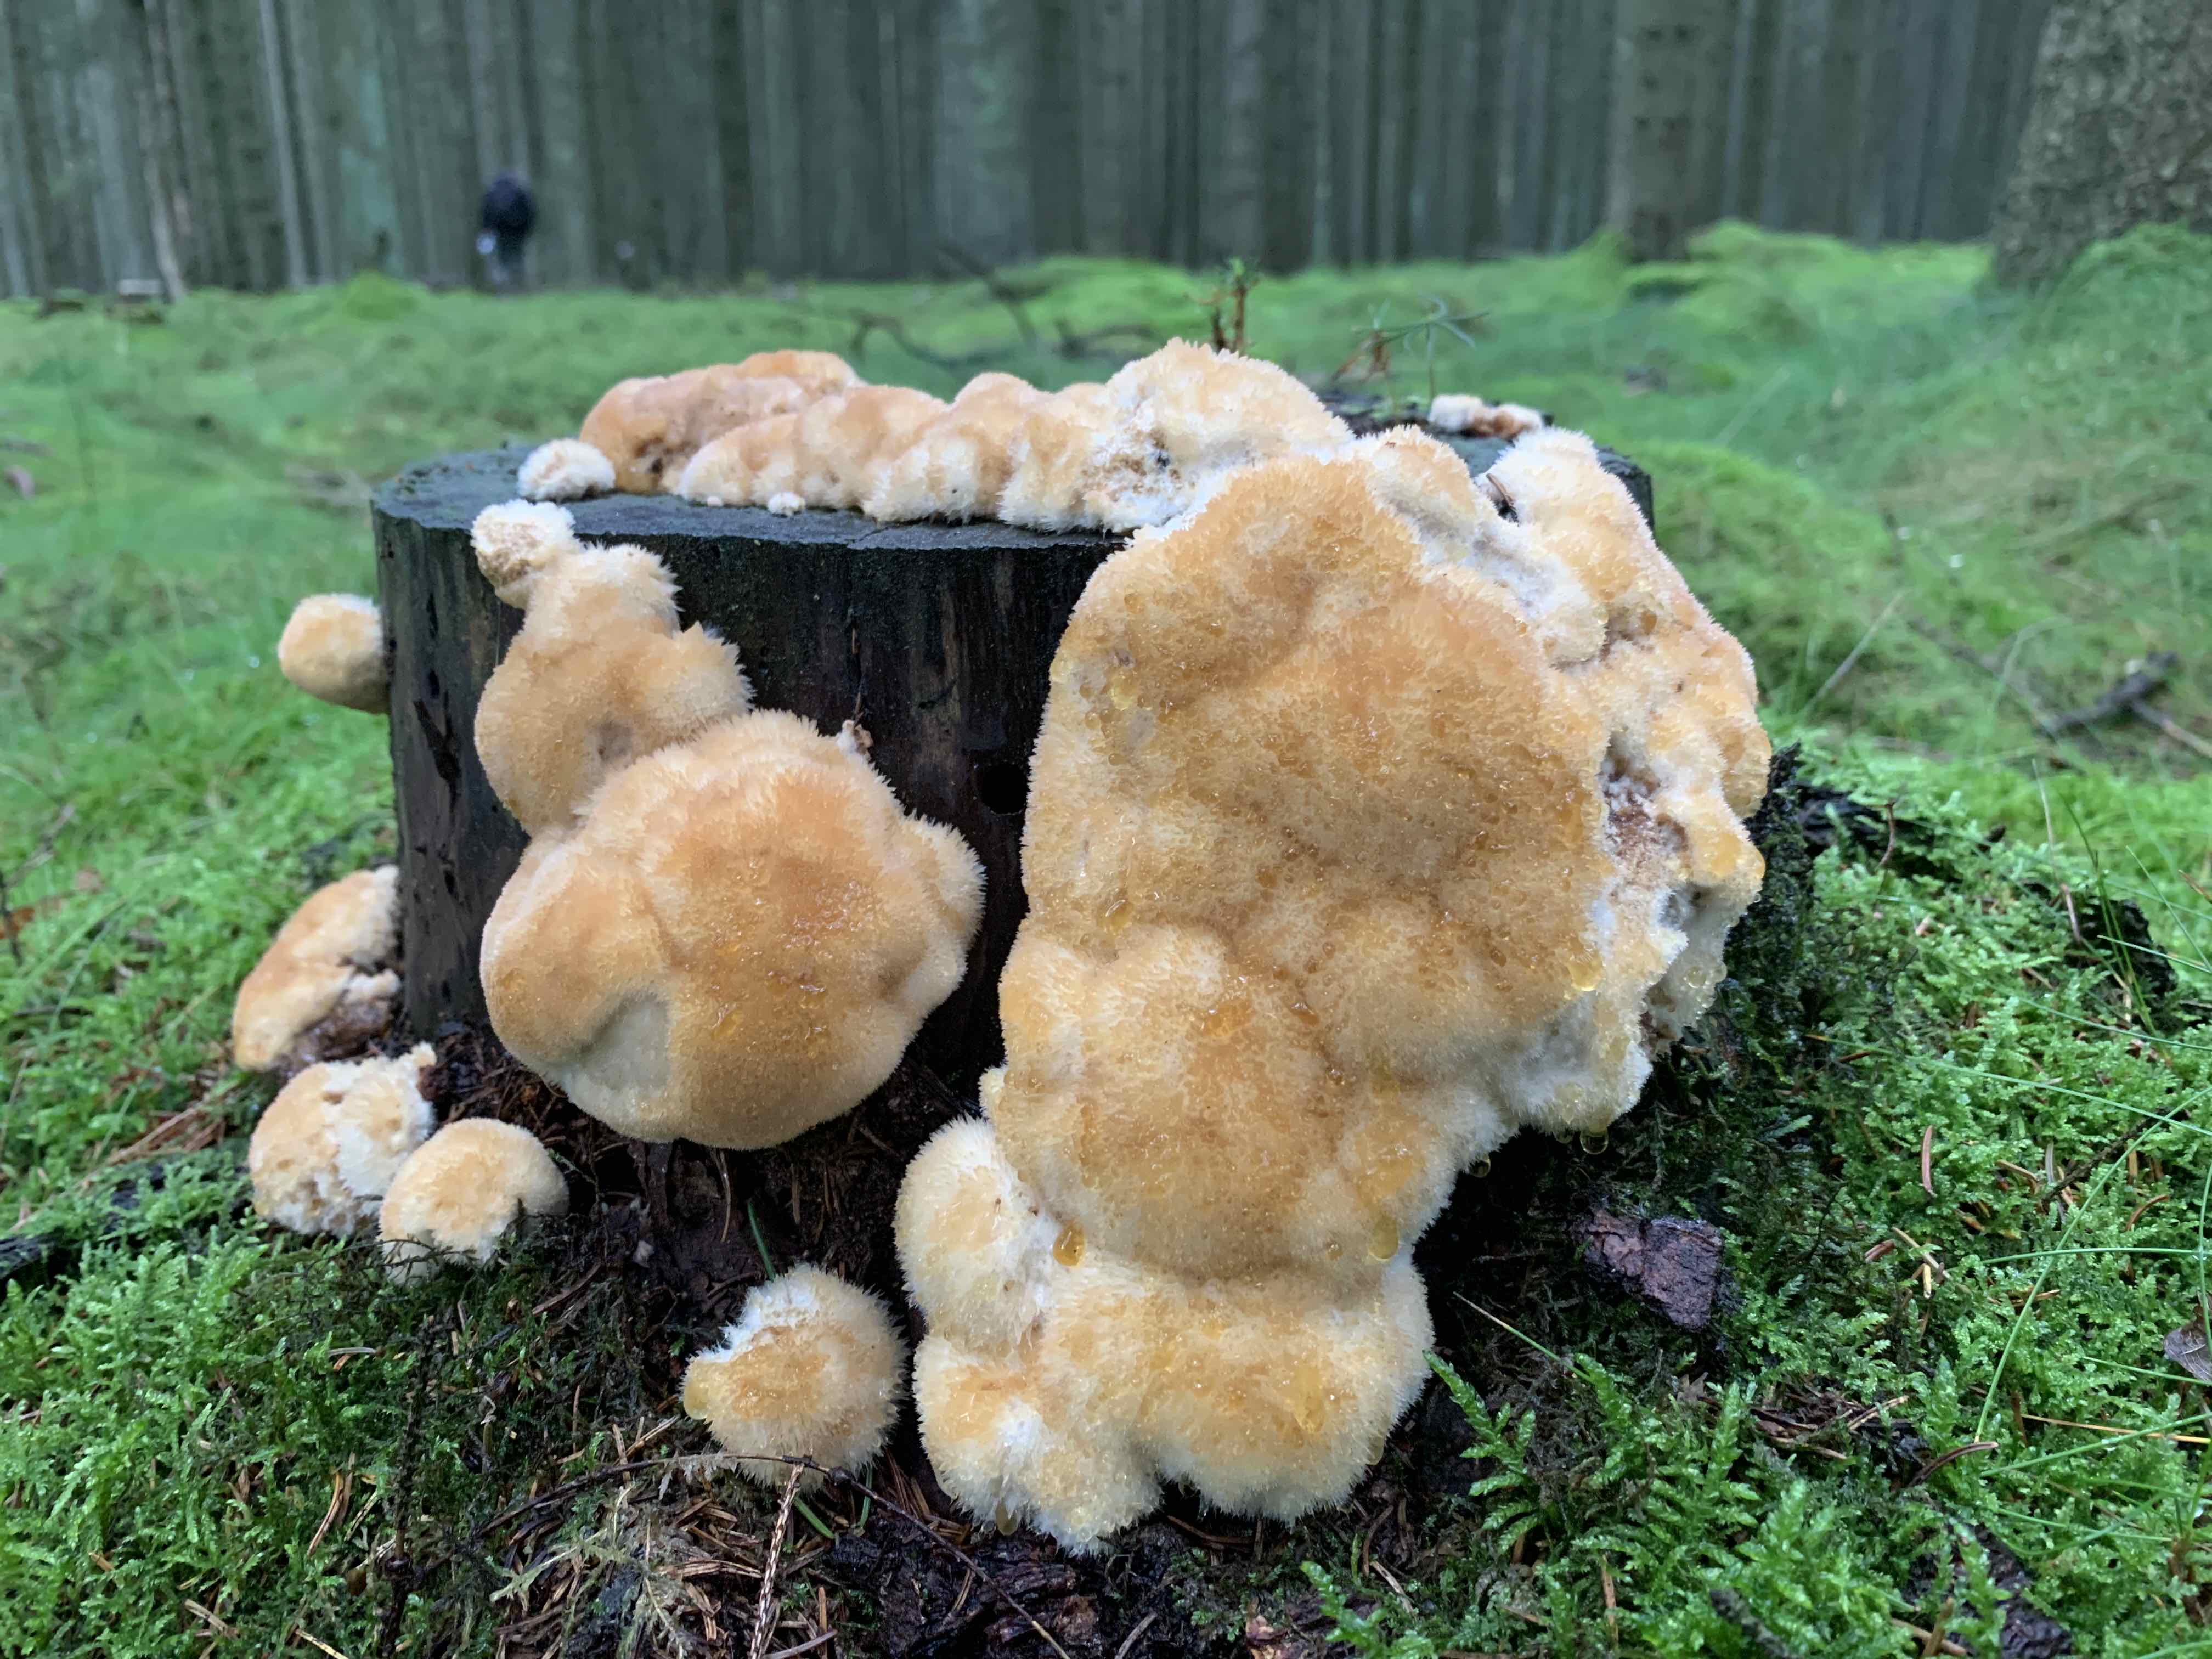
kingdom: Fungi
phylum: Basidiomycota
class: Agaricomycetes
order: Polyporales
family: Dacryobolaceae
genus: Postia
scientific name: Postia ptychogaster
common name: støvende kødporesvamp
